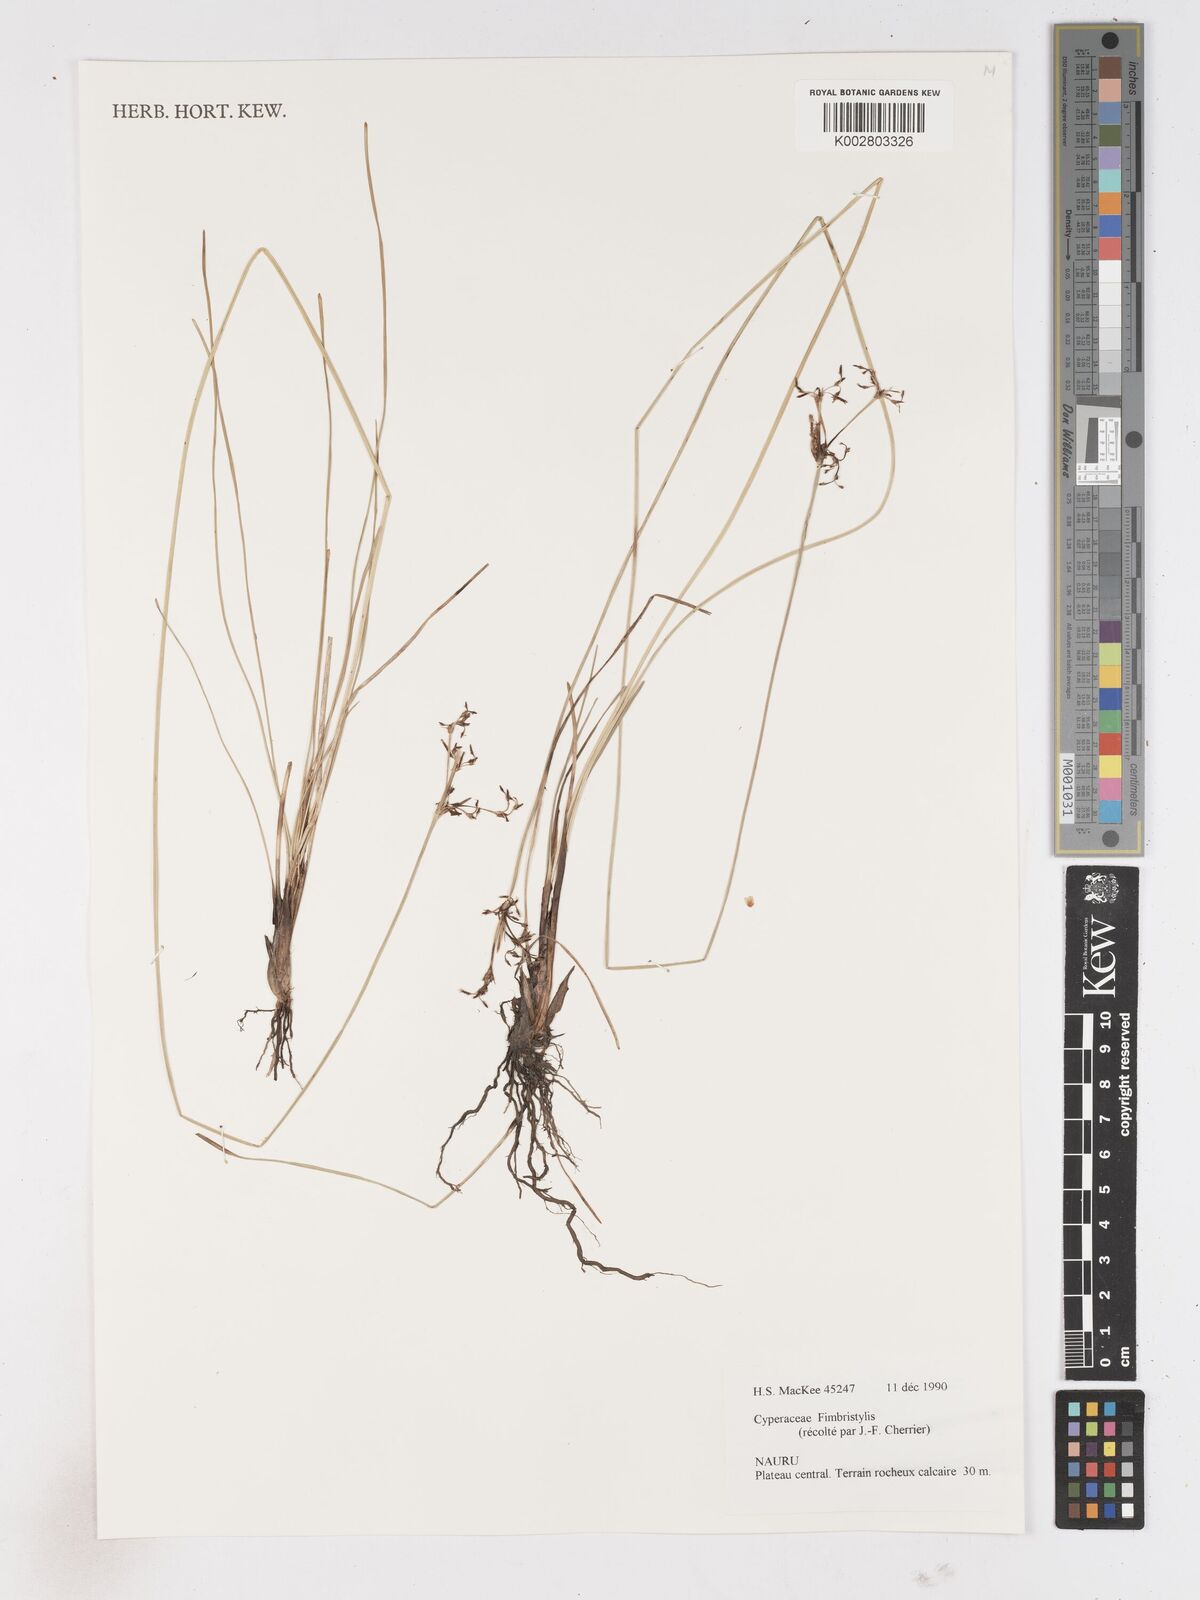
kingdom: Plantae
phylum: Tracheophyta
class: Liliopsida
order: Poales
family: Cyperaceae
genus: Fimbristylis
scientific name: Fimbristylis
